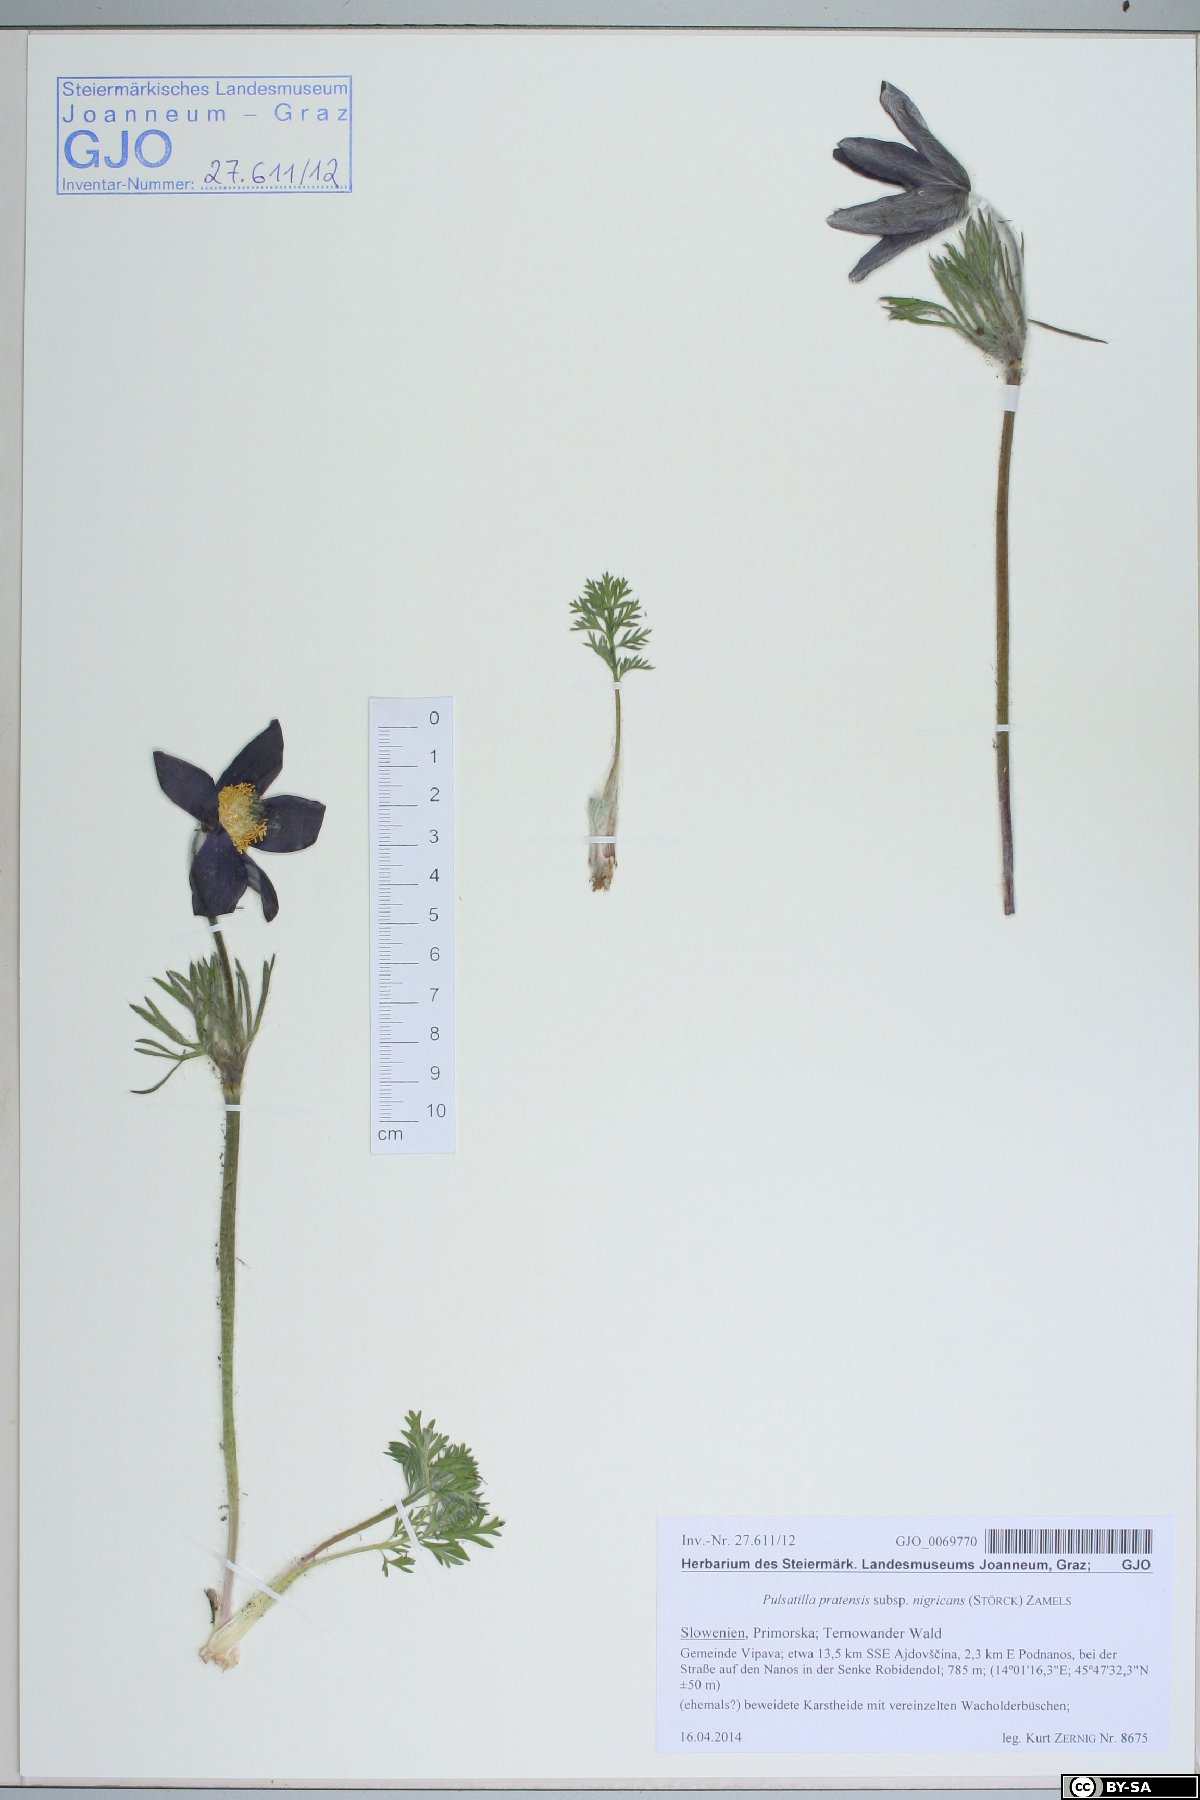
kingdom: Plantae
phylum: Tracheophyta
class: Magnoliopsida
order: Ranunculales
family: Ranunculaceae
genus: Pulsatilla
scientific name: Pulsatilla pratensis
